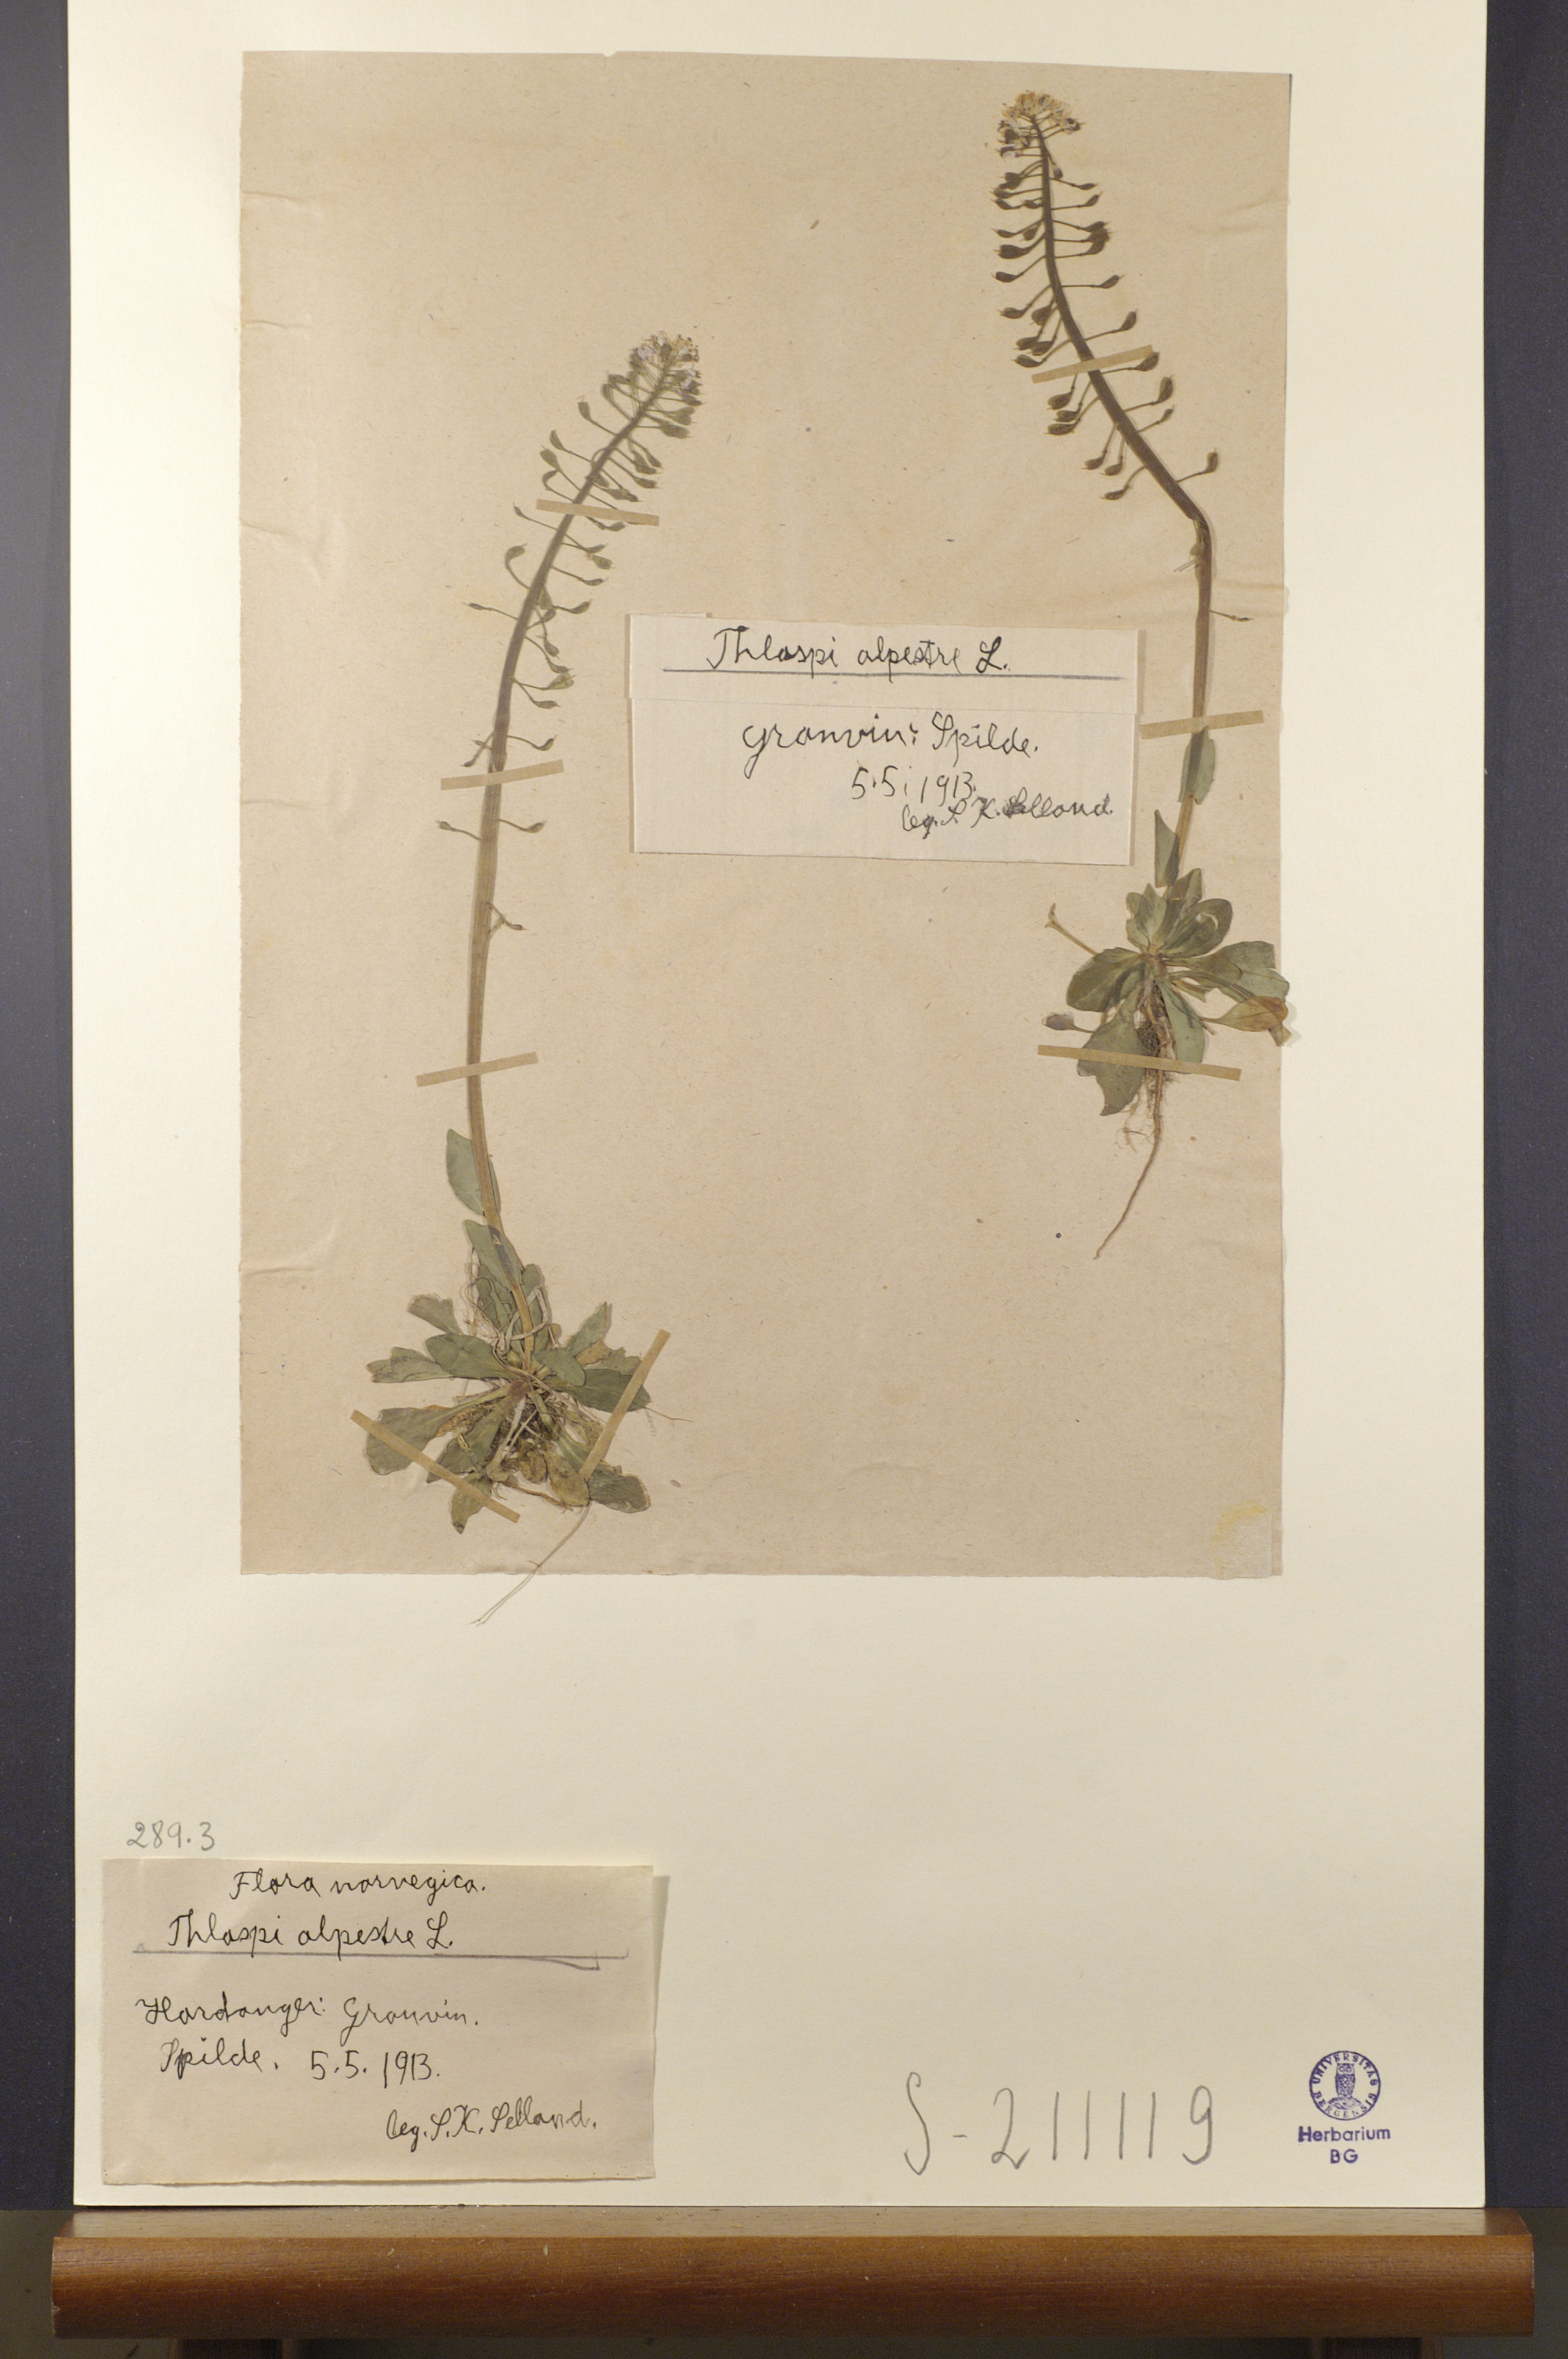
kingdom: Plantae
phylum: Tracheophyta
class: Magnoliopsida
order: Brassicales
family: Brassicaceae
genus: Noccaea
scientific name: Noccaea caerulescens
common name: Alpine pennycress
